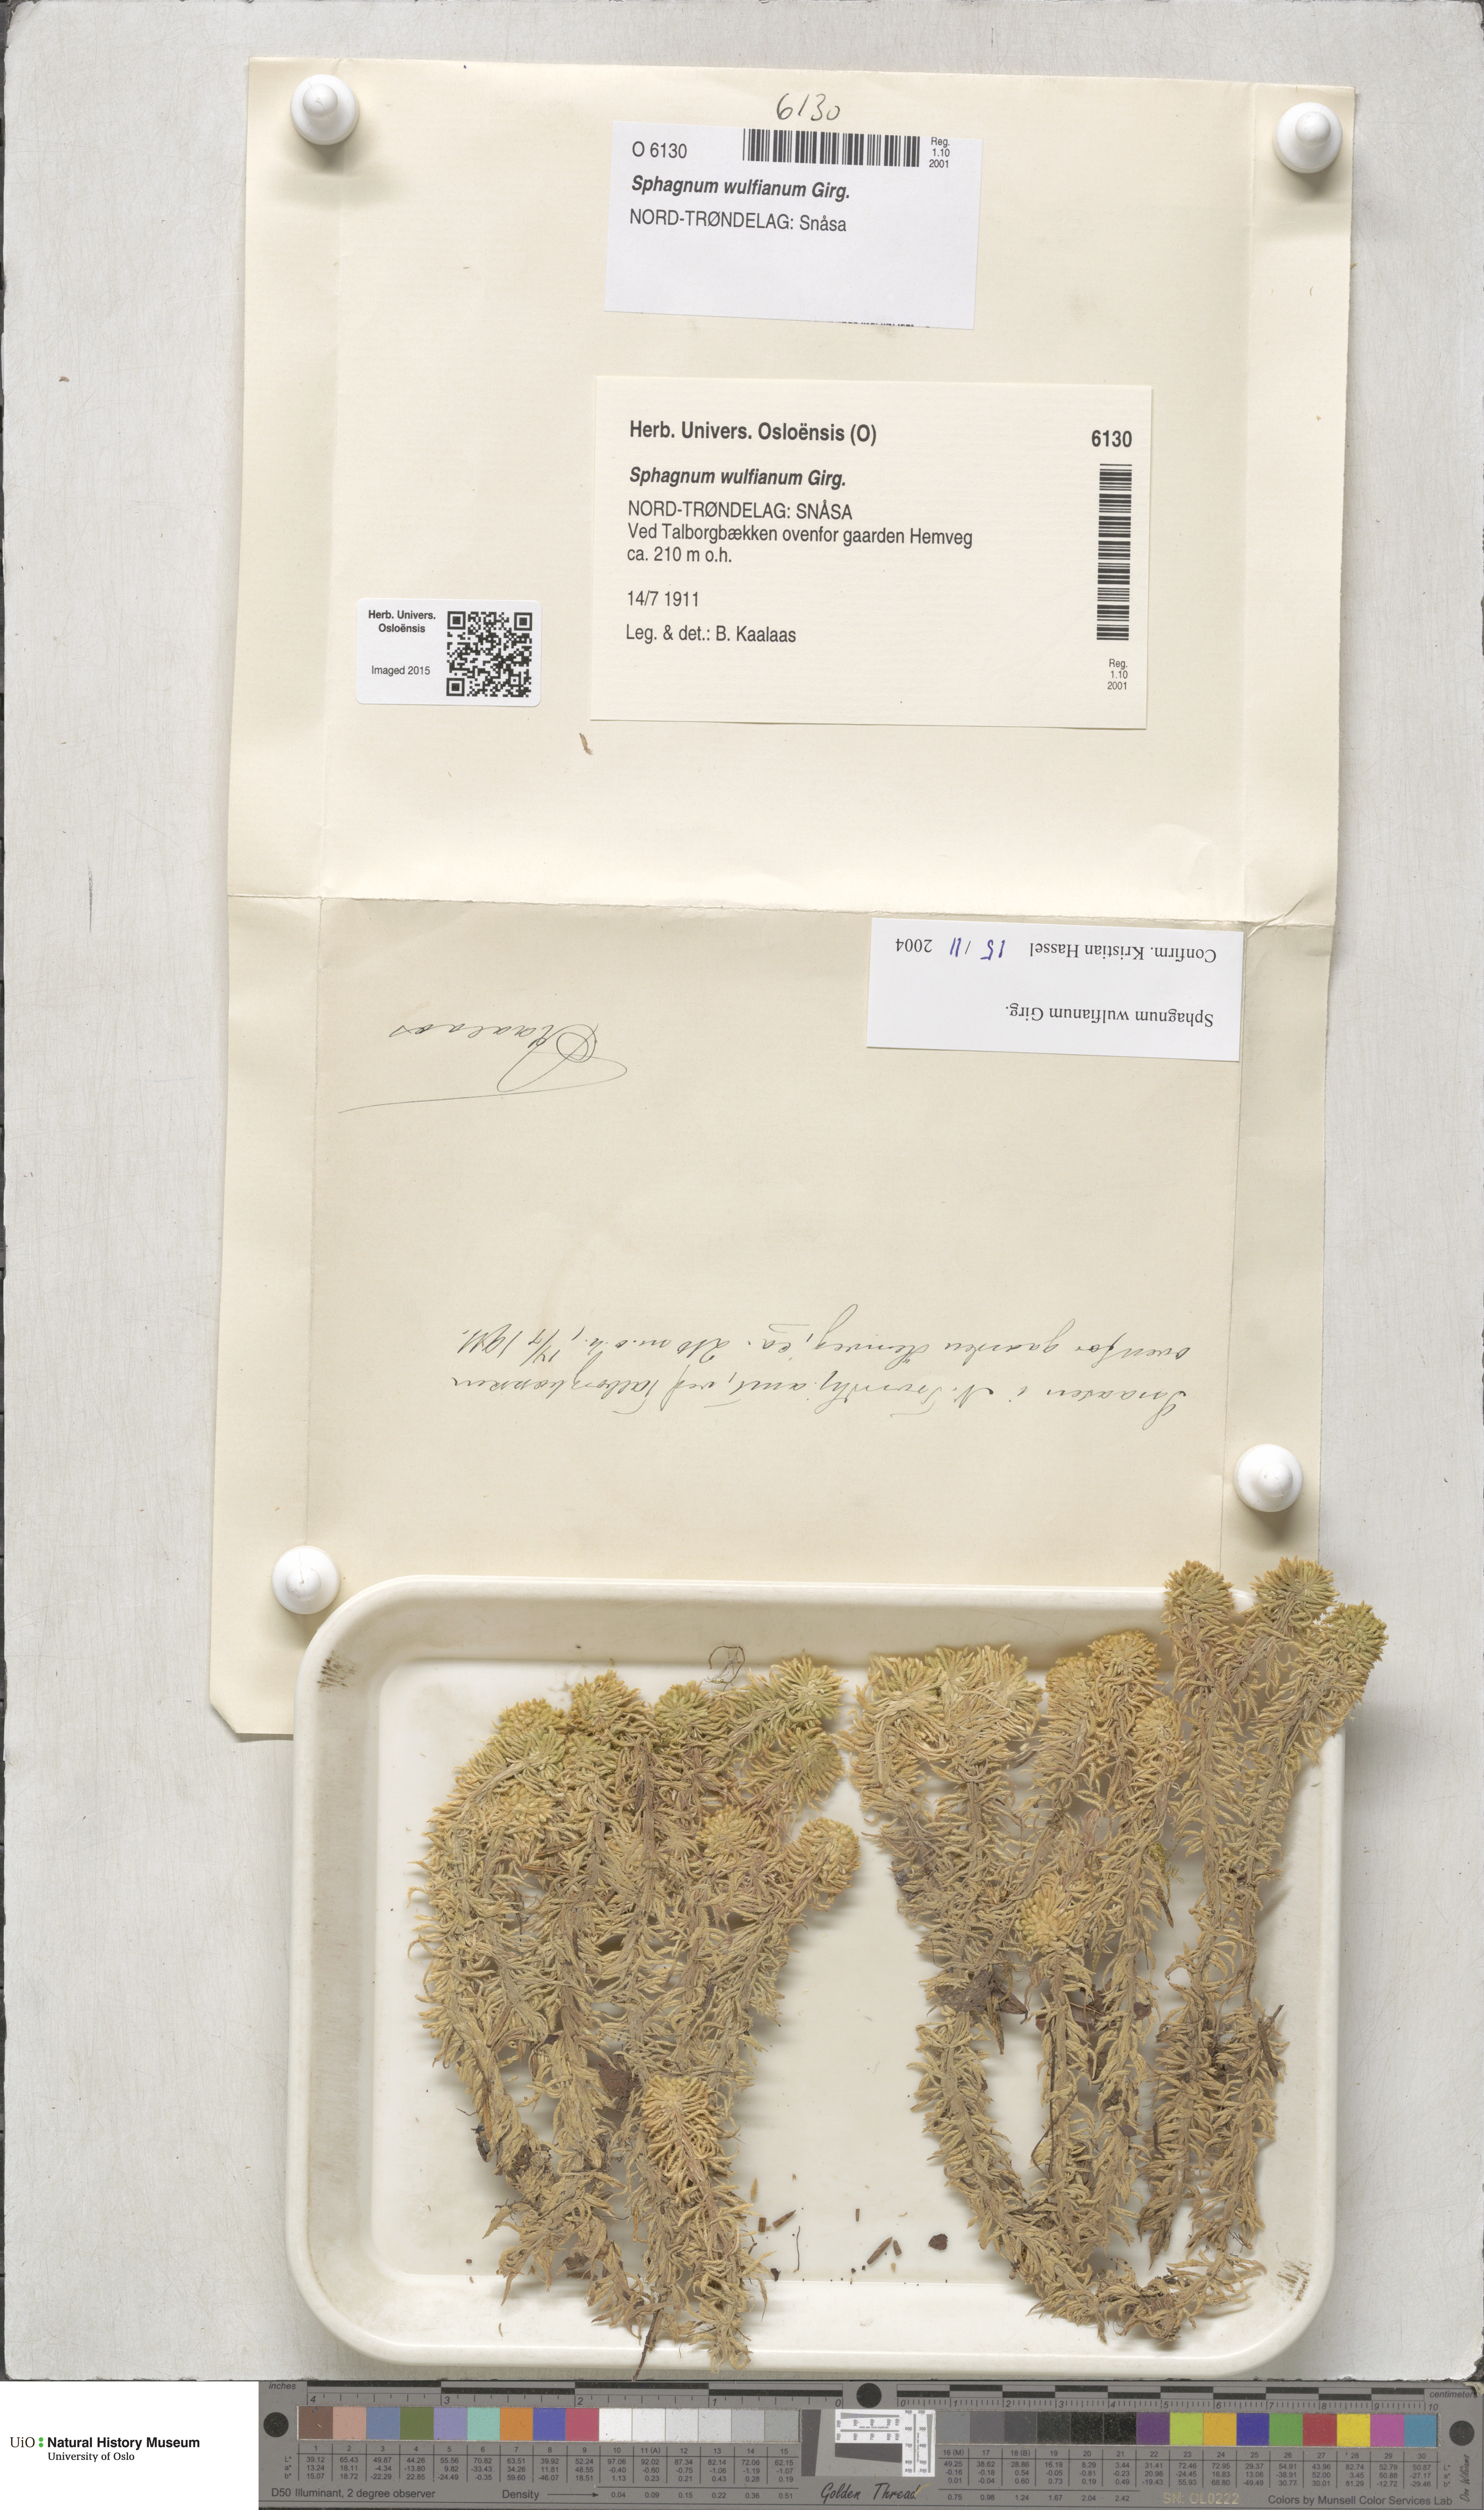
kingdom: Plantae
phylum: Bryophyta
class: Sphagnopsida
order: Sphagnales
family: Sphagnaceae
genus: Sphagnum
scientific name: Sphagnum wulfianum
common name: Wulf's peat moss
